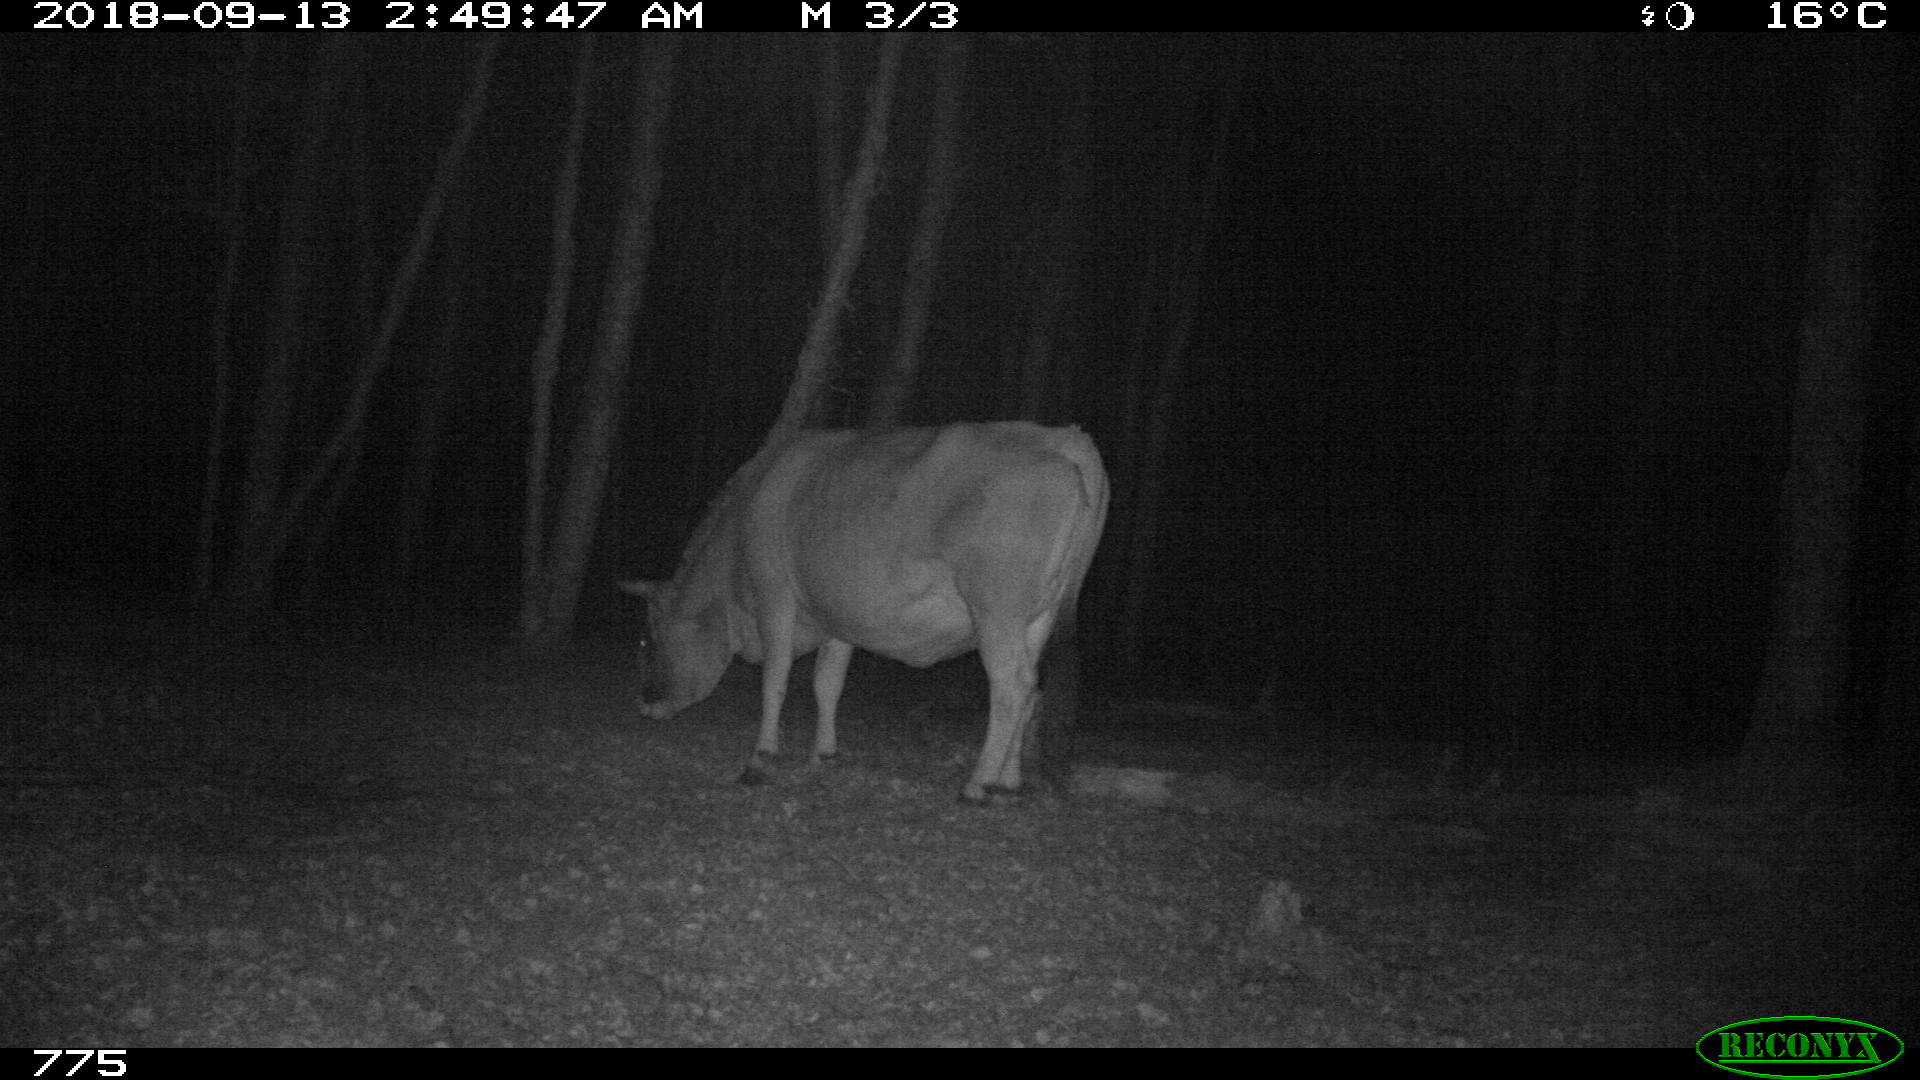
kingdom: Animalia
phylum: Chordata
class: Mammalia
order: Artiodactyla
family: Bovidae
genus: Bos
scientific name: Bos taurus
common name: Domesticated cattle
